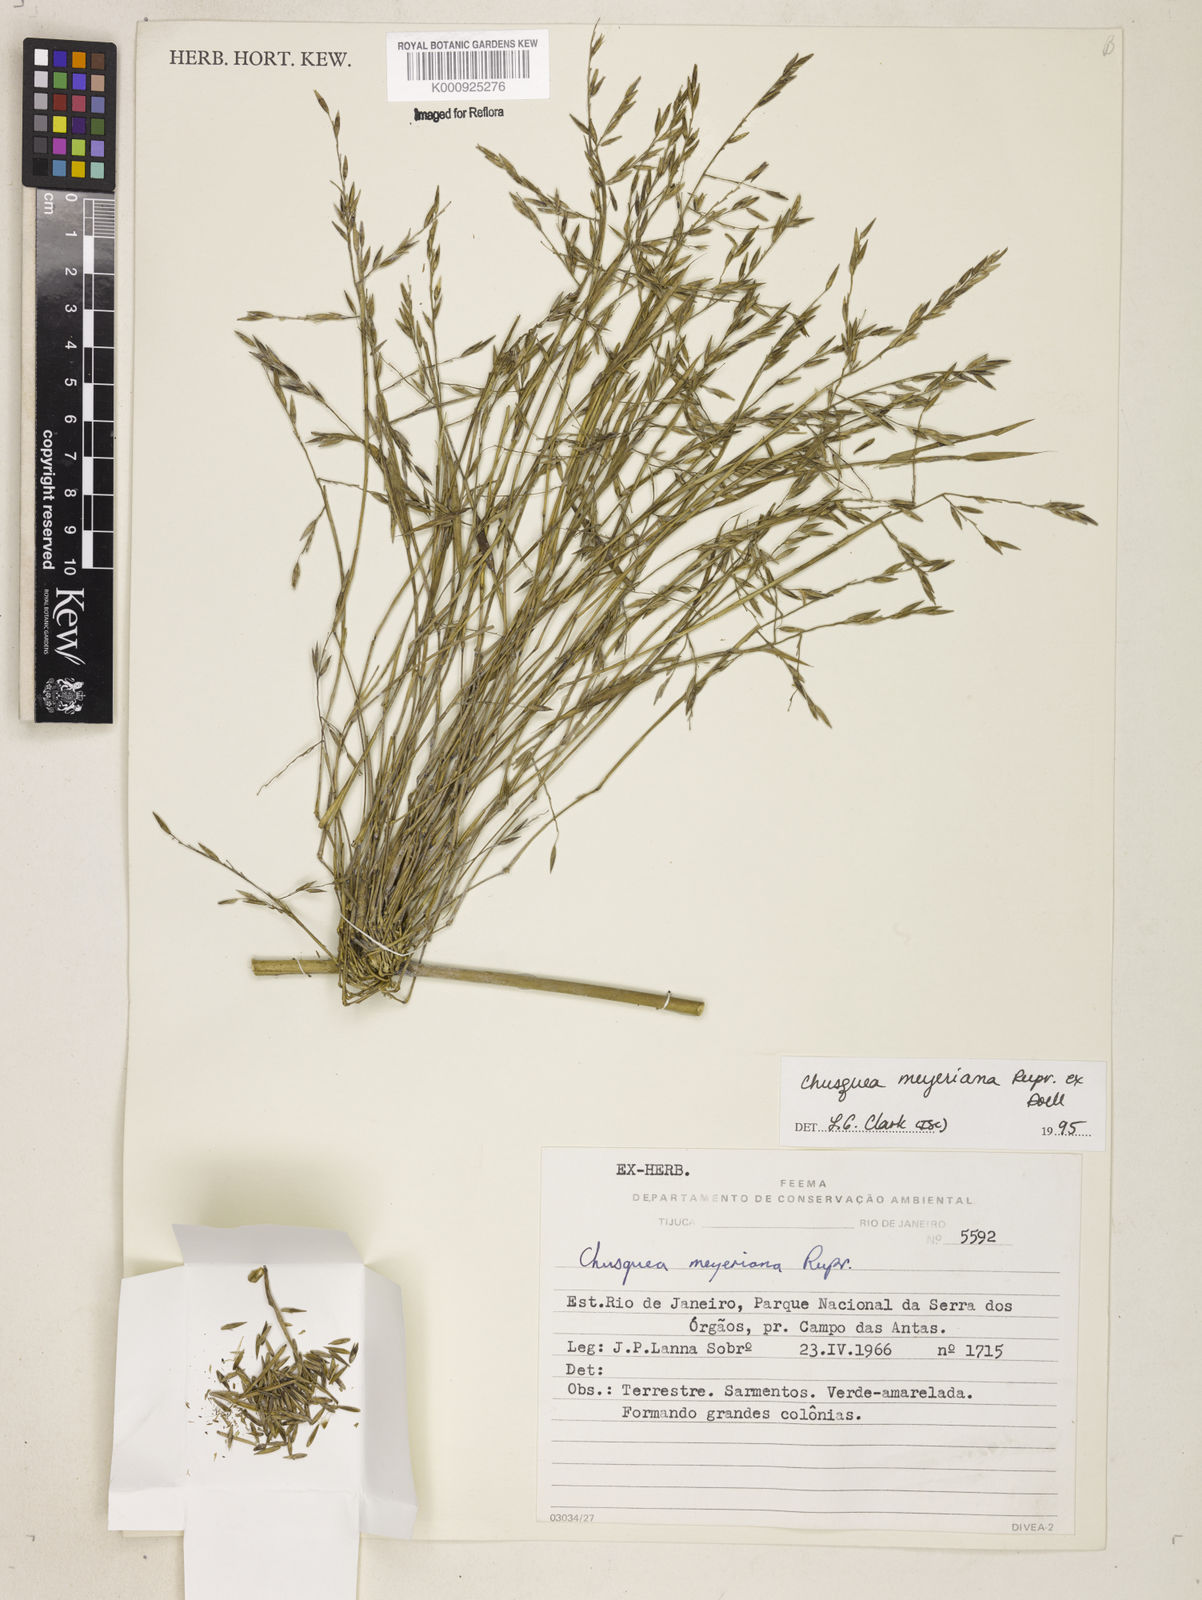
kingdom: Plantae
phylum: Tracheophyta
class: Liliopsida
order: Poales
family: Poaceae
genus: Chusquea
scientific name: Chusquea
